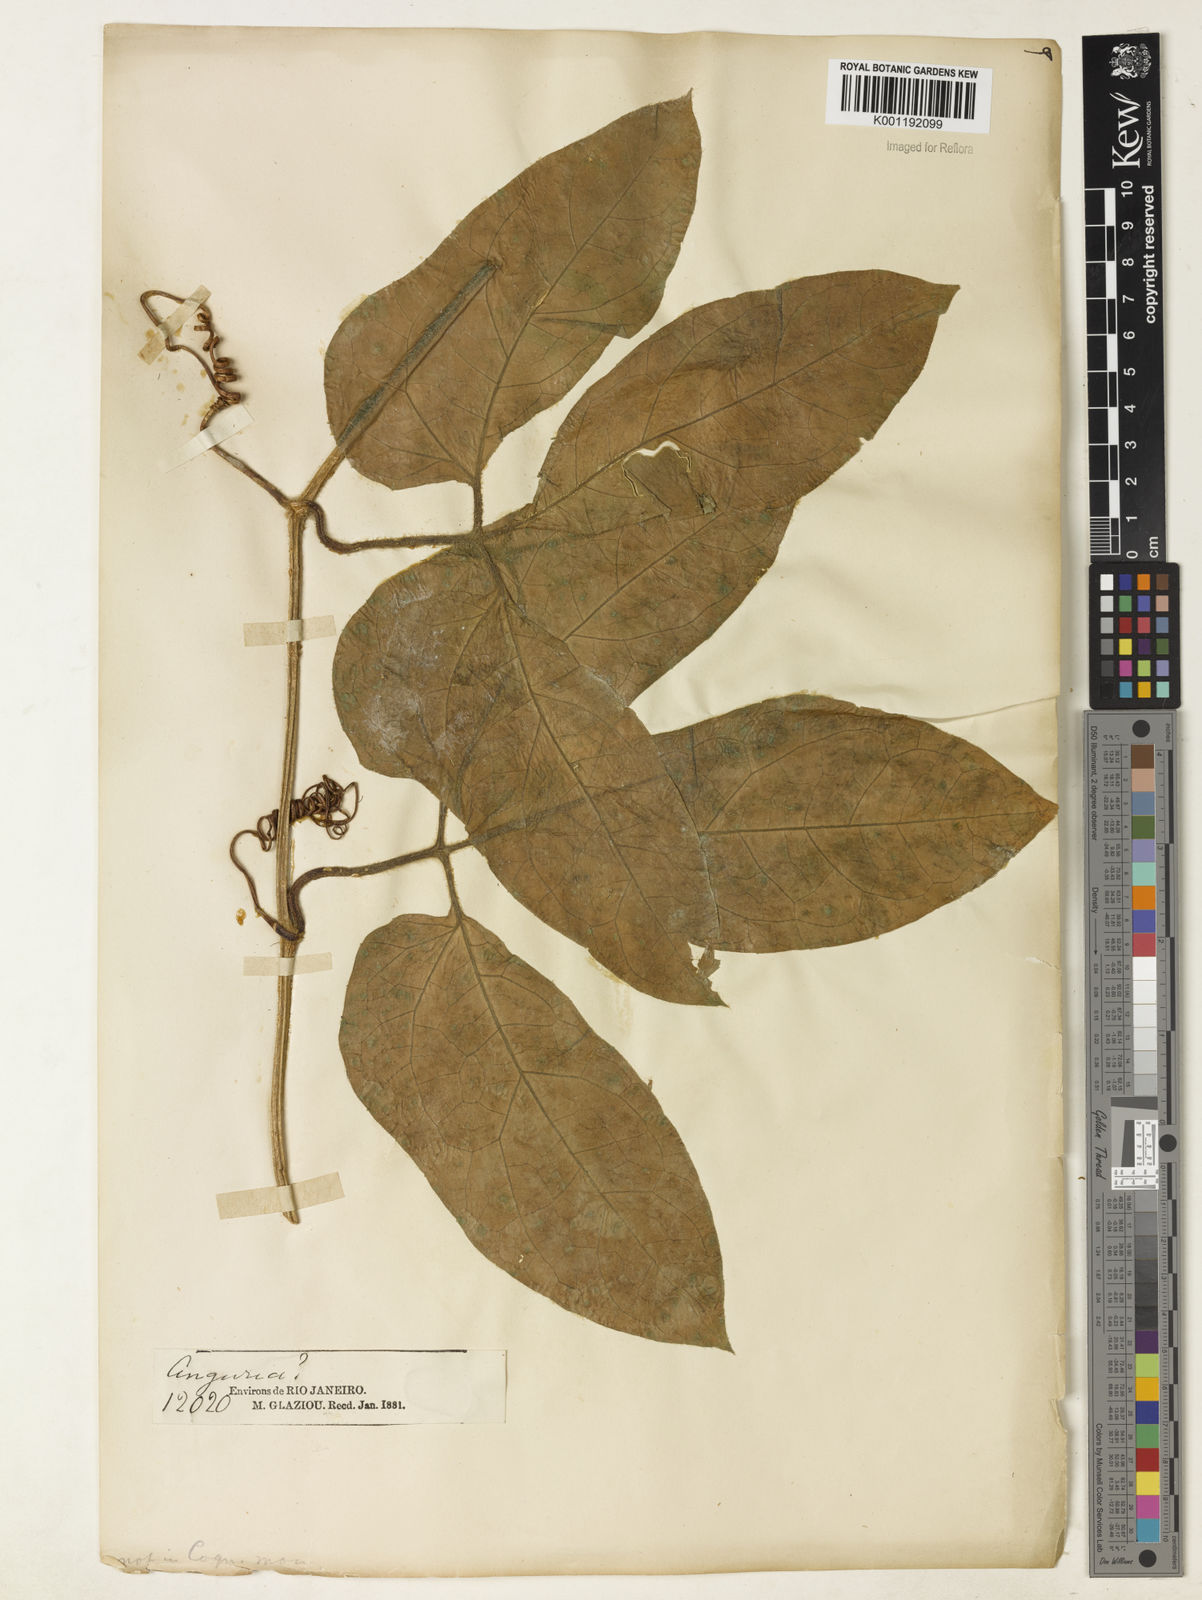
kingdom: Plantae
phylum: Tracheophyta
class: Magnoliopsida
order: Cucurbitales
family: Cucurbitaceae
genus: Gurania
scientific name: Gurania bignoniacea
